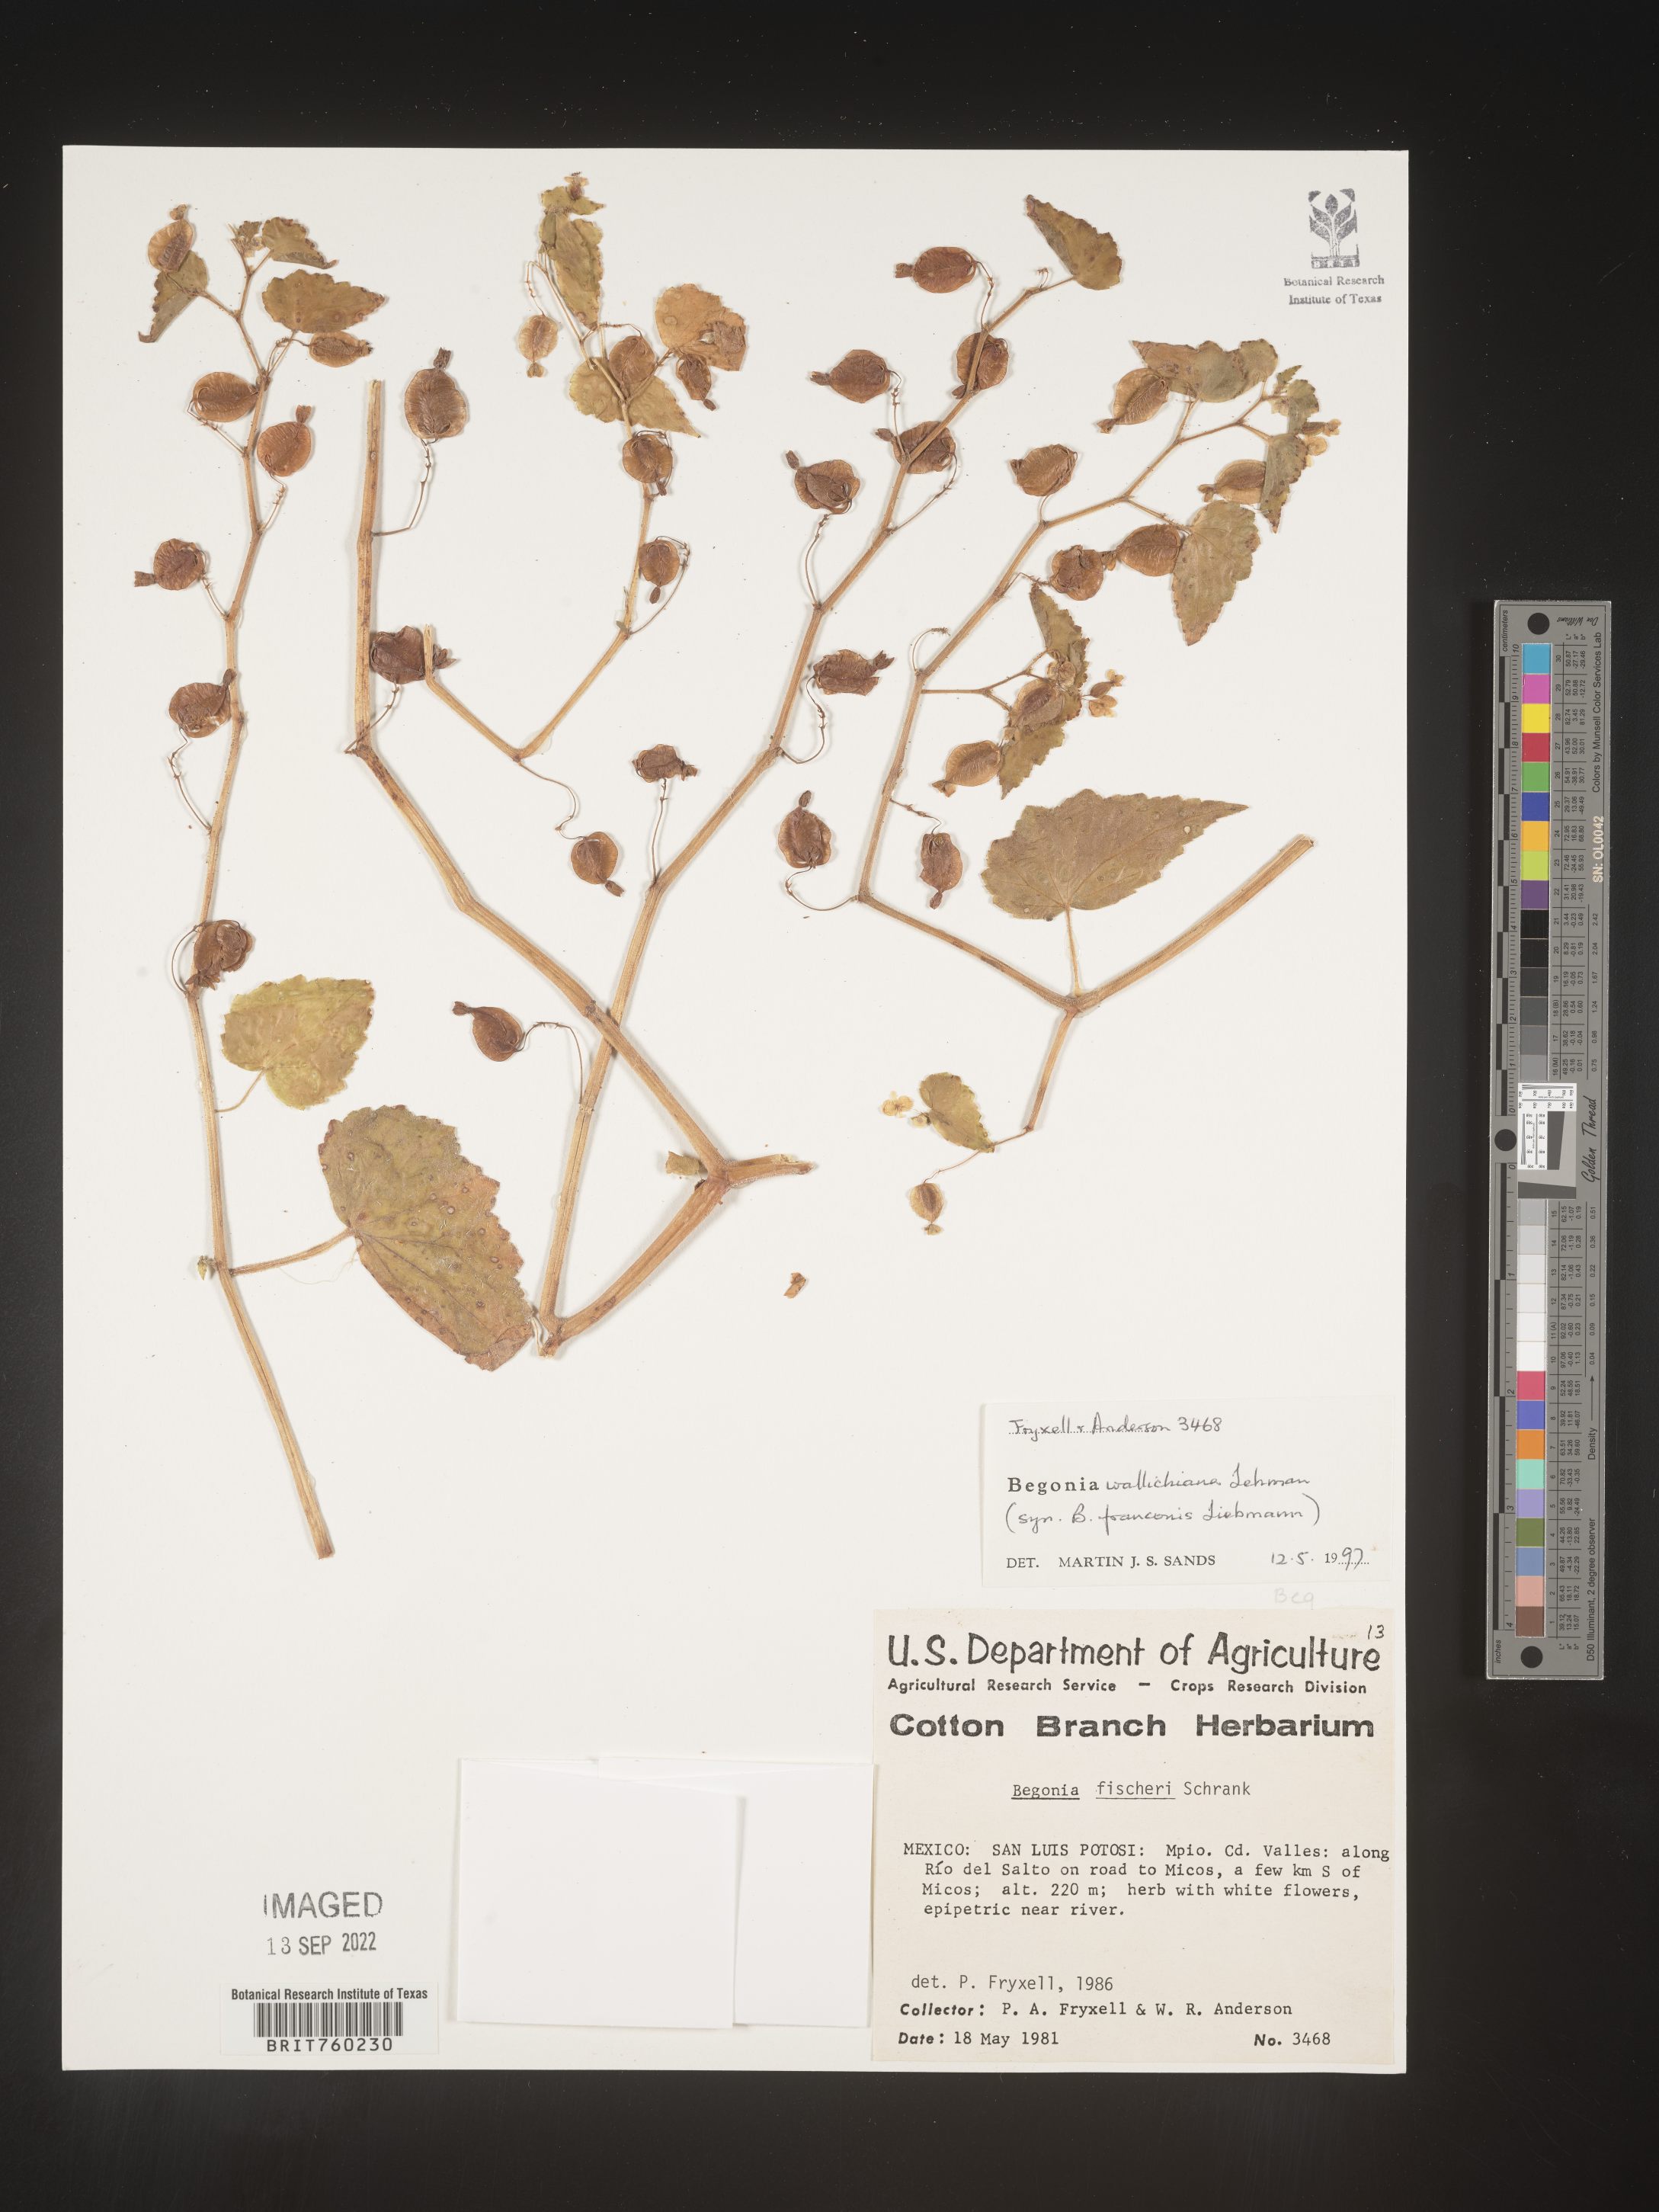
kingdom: Plantae
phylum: Tracheophyta
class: Magnoliopsida
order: Cucurbitales
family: Begoniaceae
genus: Begonia
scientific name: Begonia
